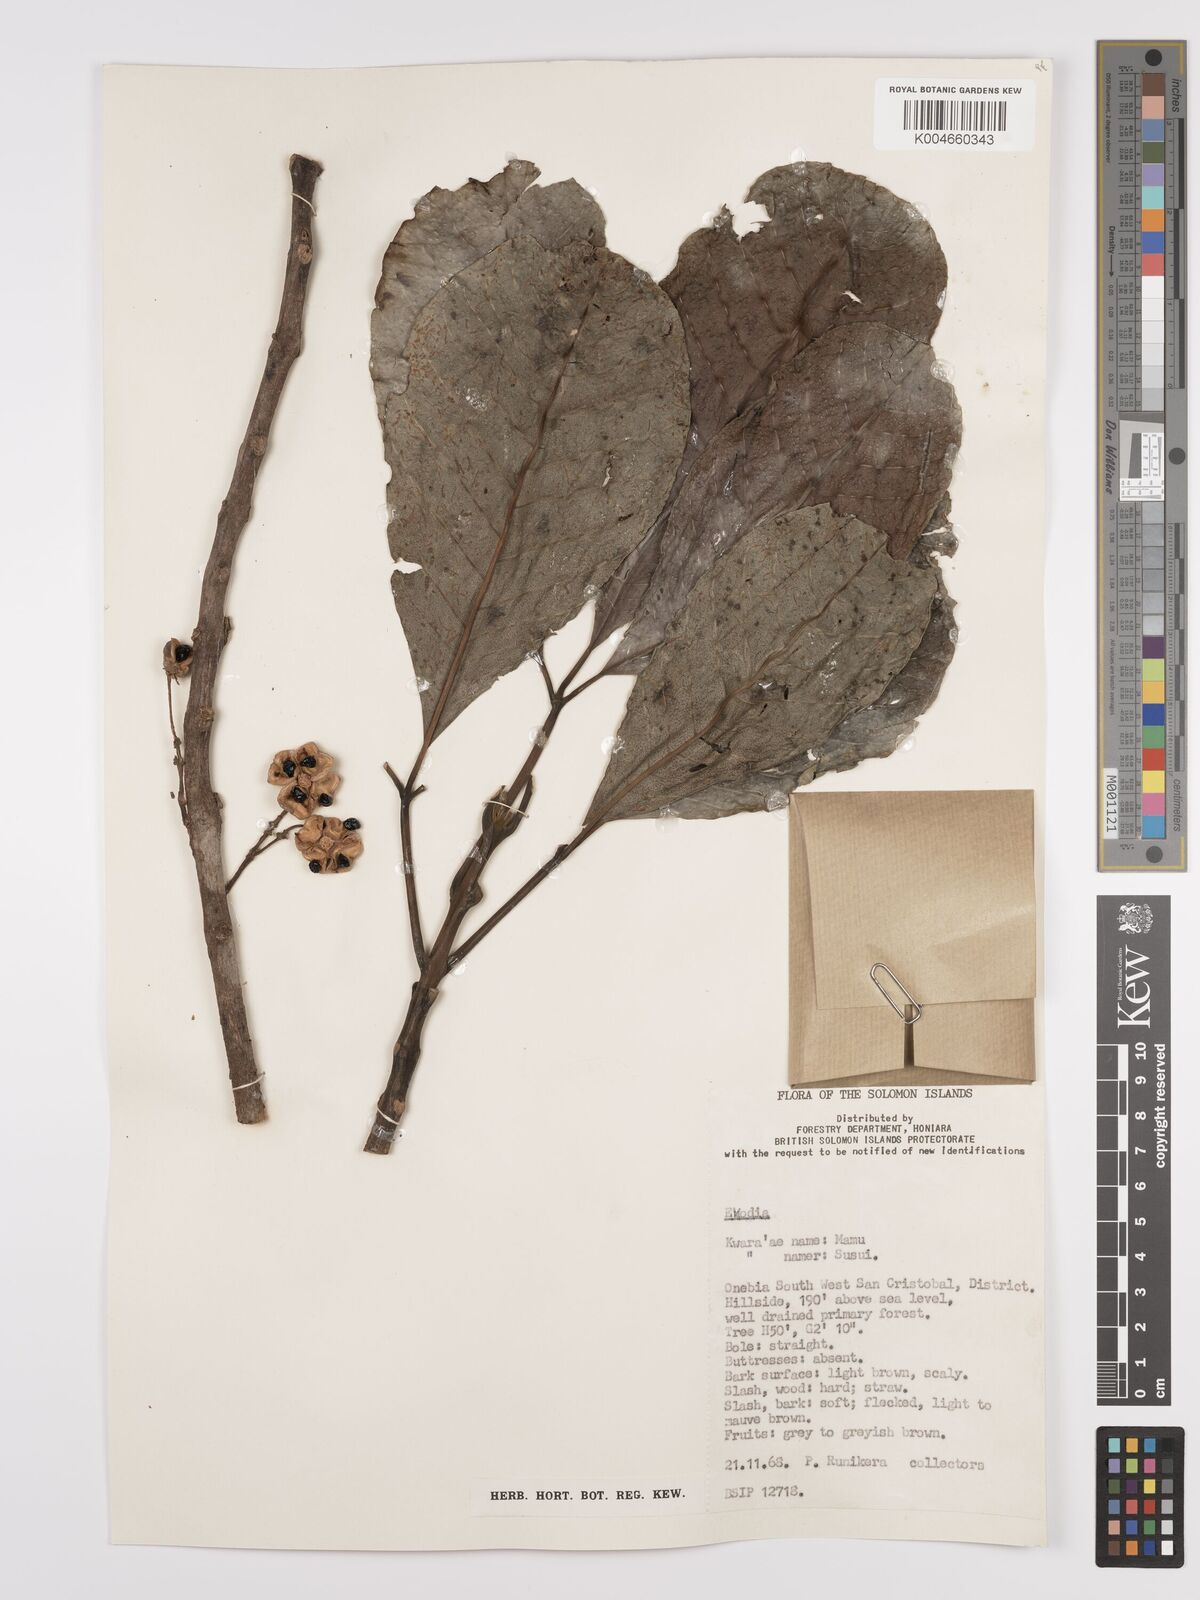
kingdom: Plantae
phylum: Tracheophyta
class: Magnoliopsida
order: Sapindales
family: Rutaceae
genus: Euodia
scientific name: Euodia
